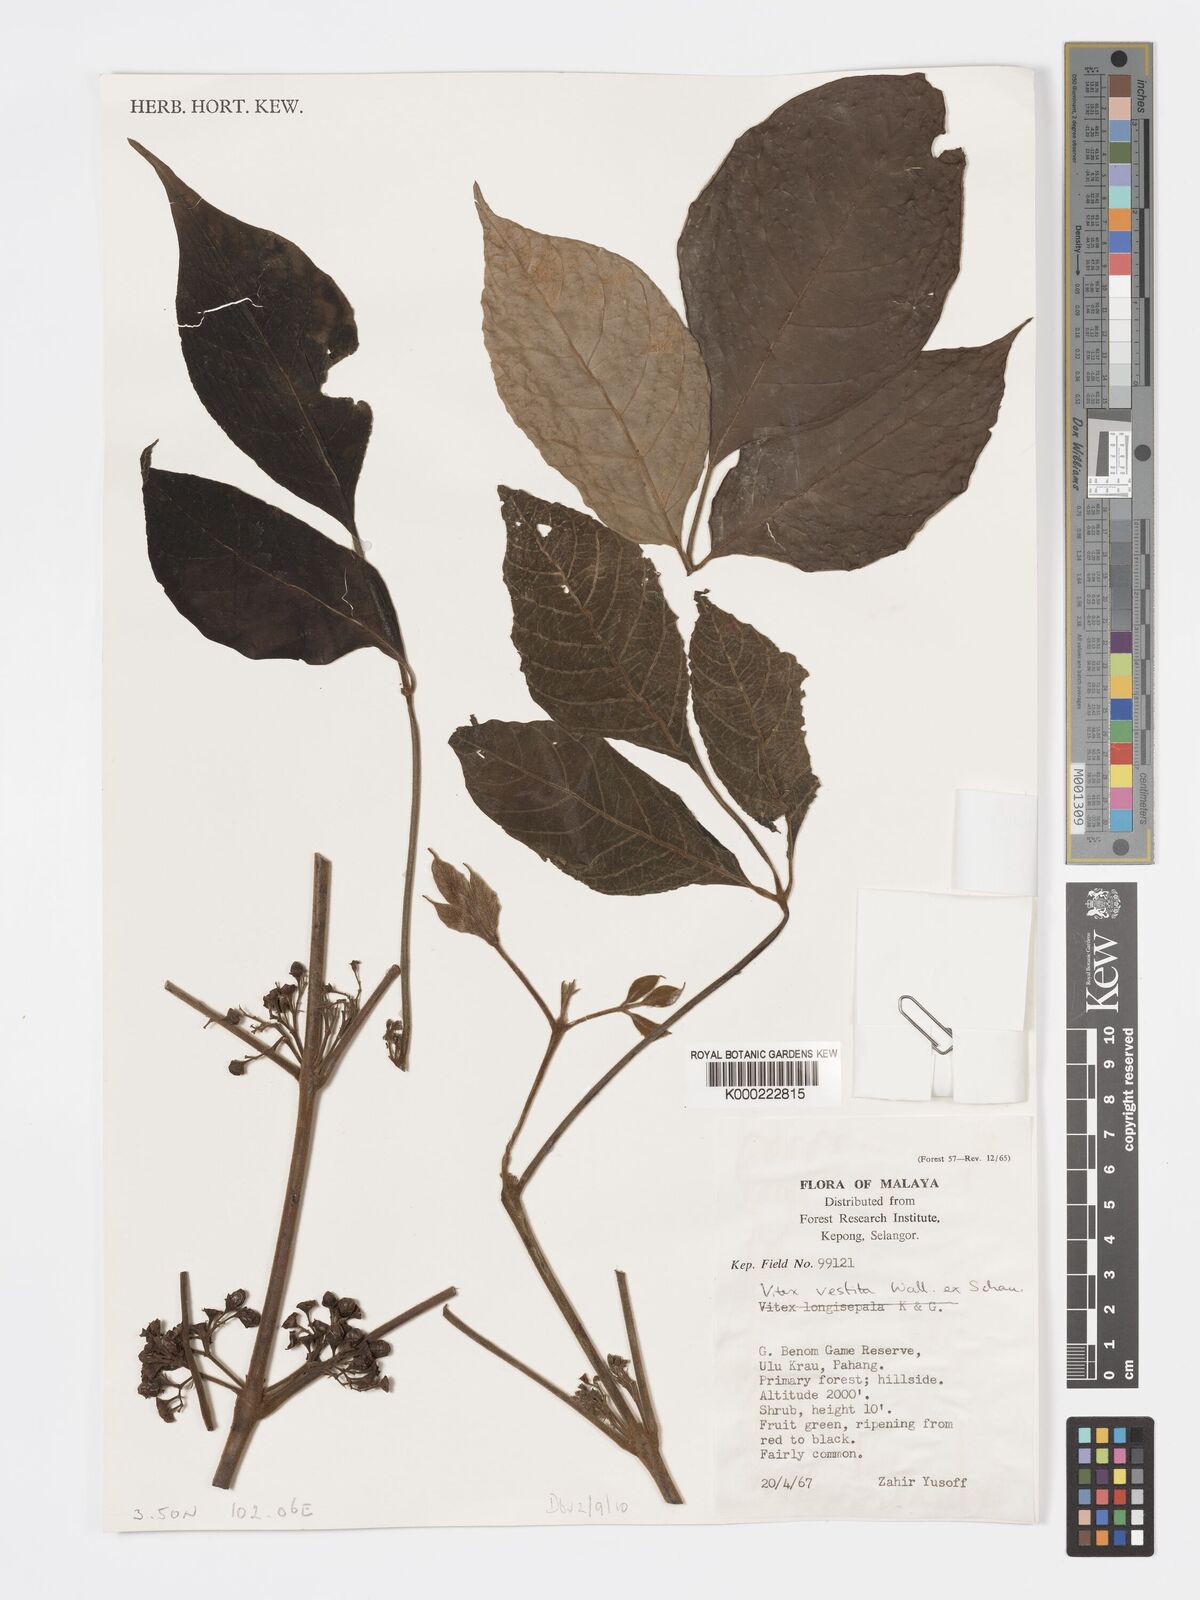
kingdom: Plantae
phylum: Tracheophyta
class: Magnoliopsida
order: Lamiales
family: Lamiaceae
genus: Vitex
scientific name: Vitex vestita
